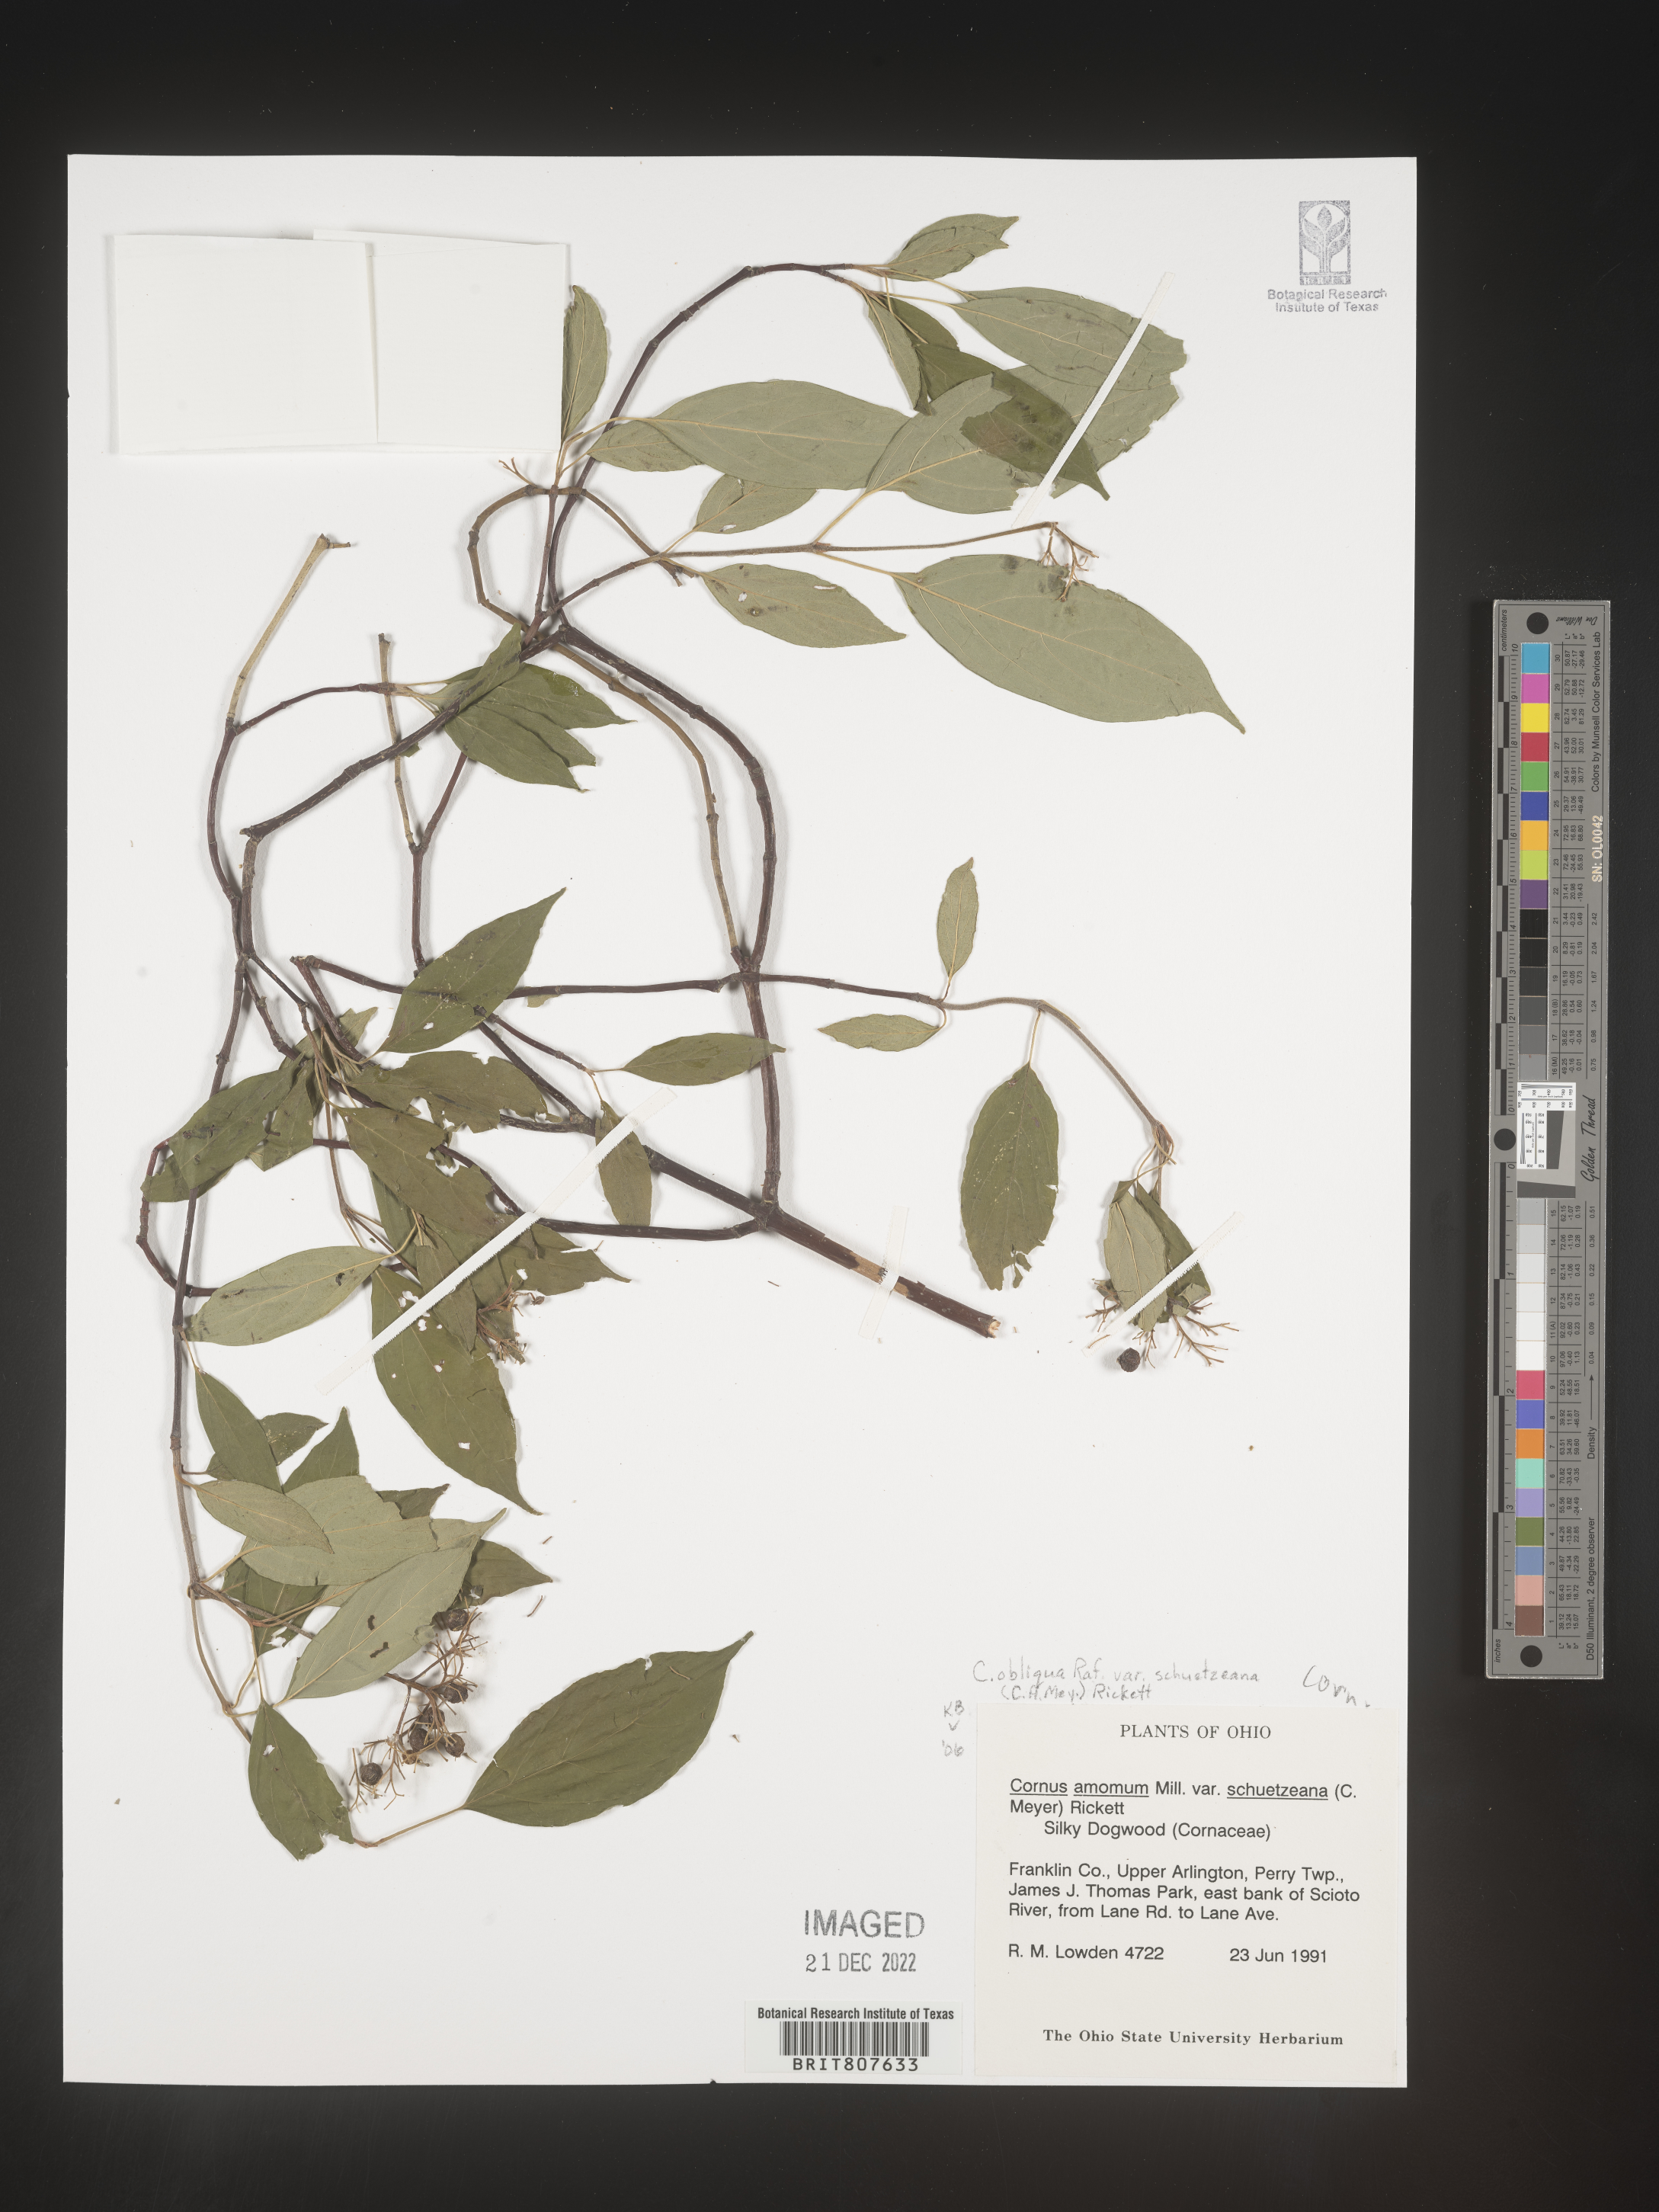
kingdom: Plantae
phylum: Tracheophyta
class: Magnoliopsida
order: Cornales
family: Cornaceae
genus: Cornus
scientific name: Cornus obliqua
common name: Pale dogwood
